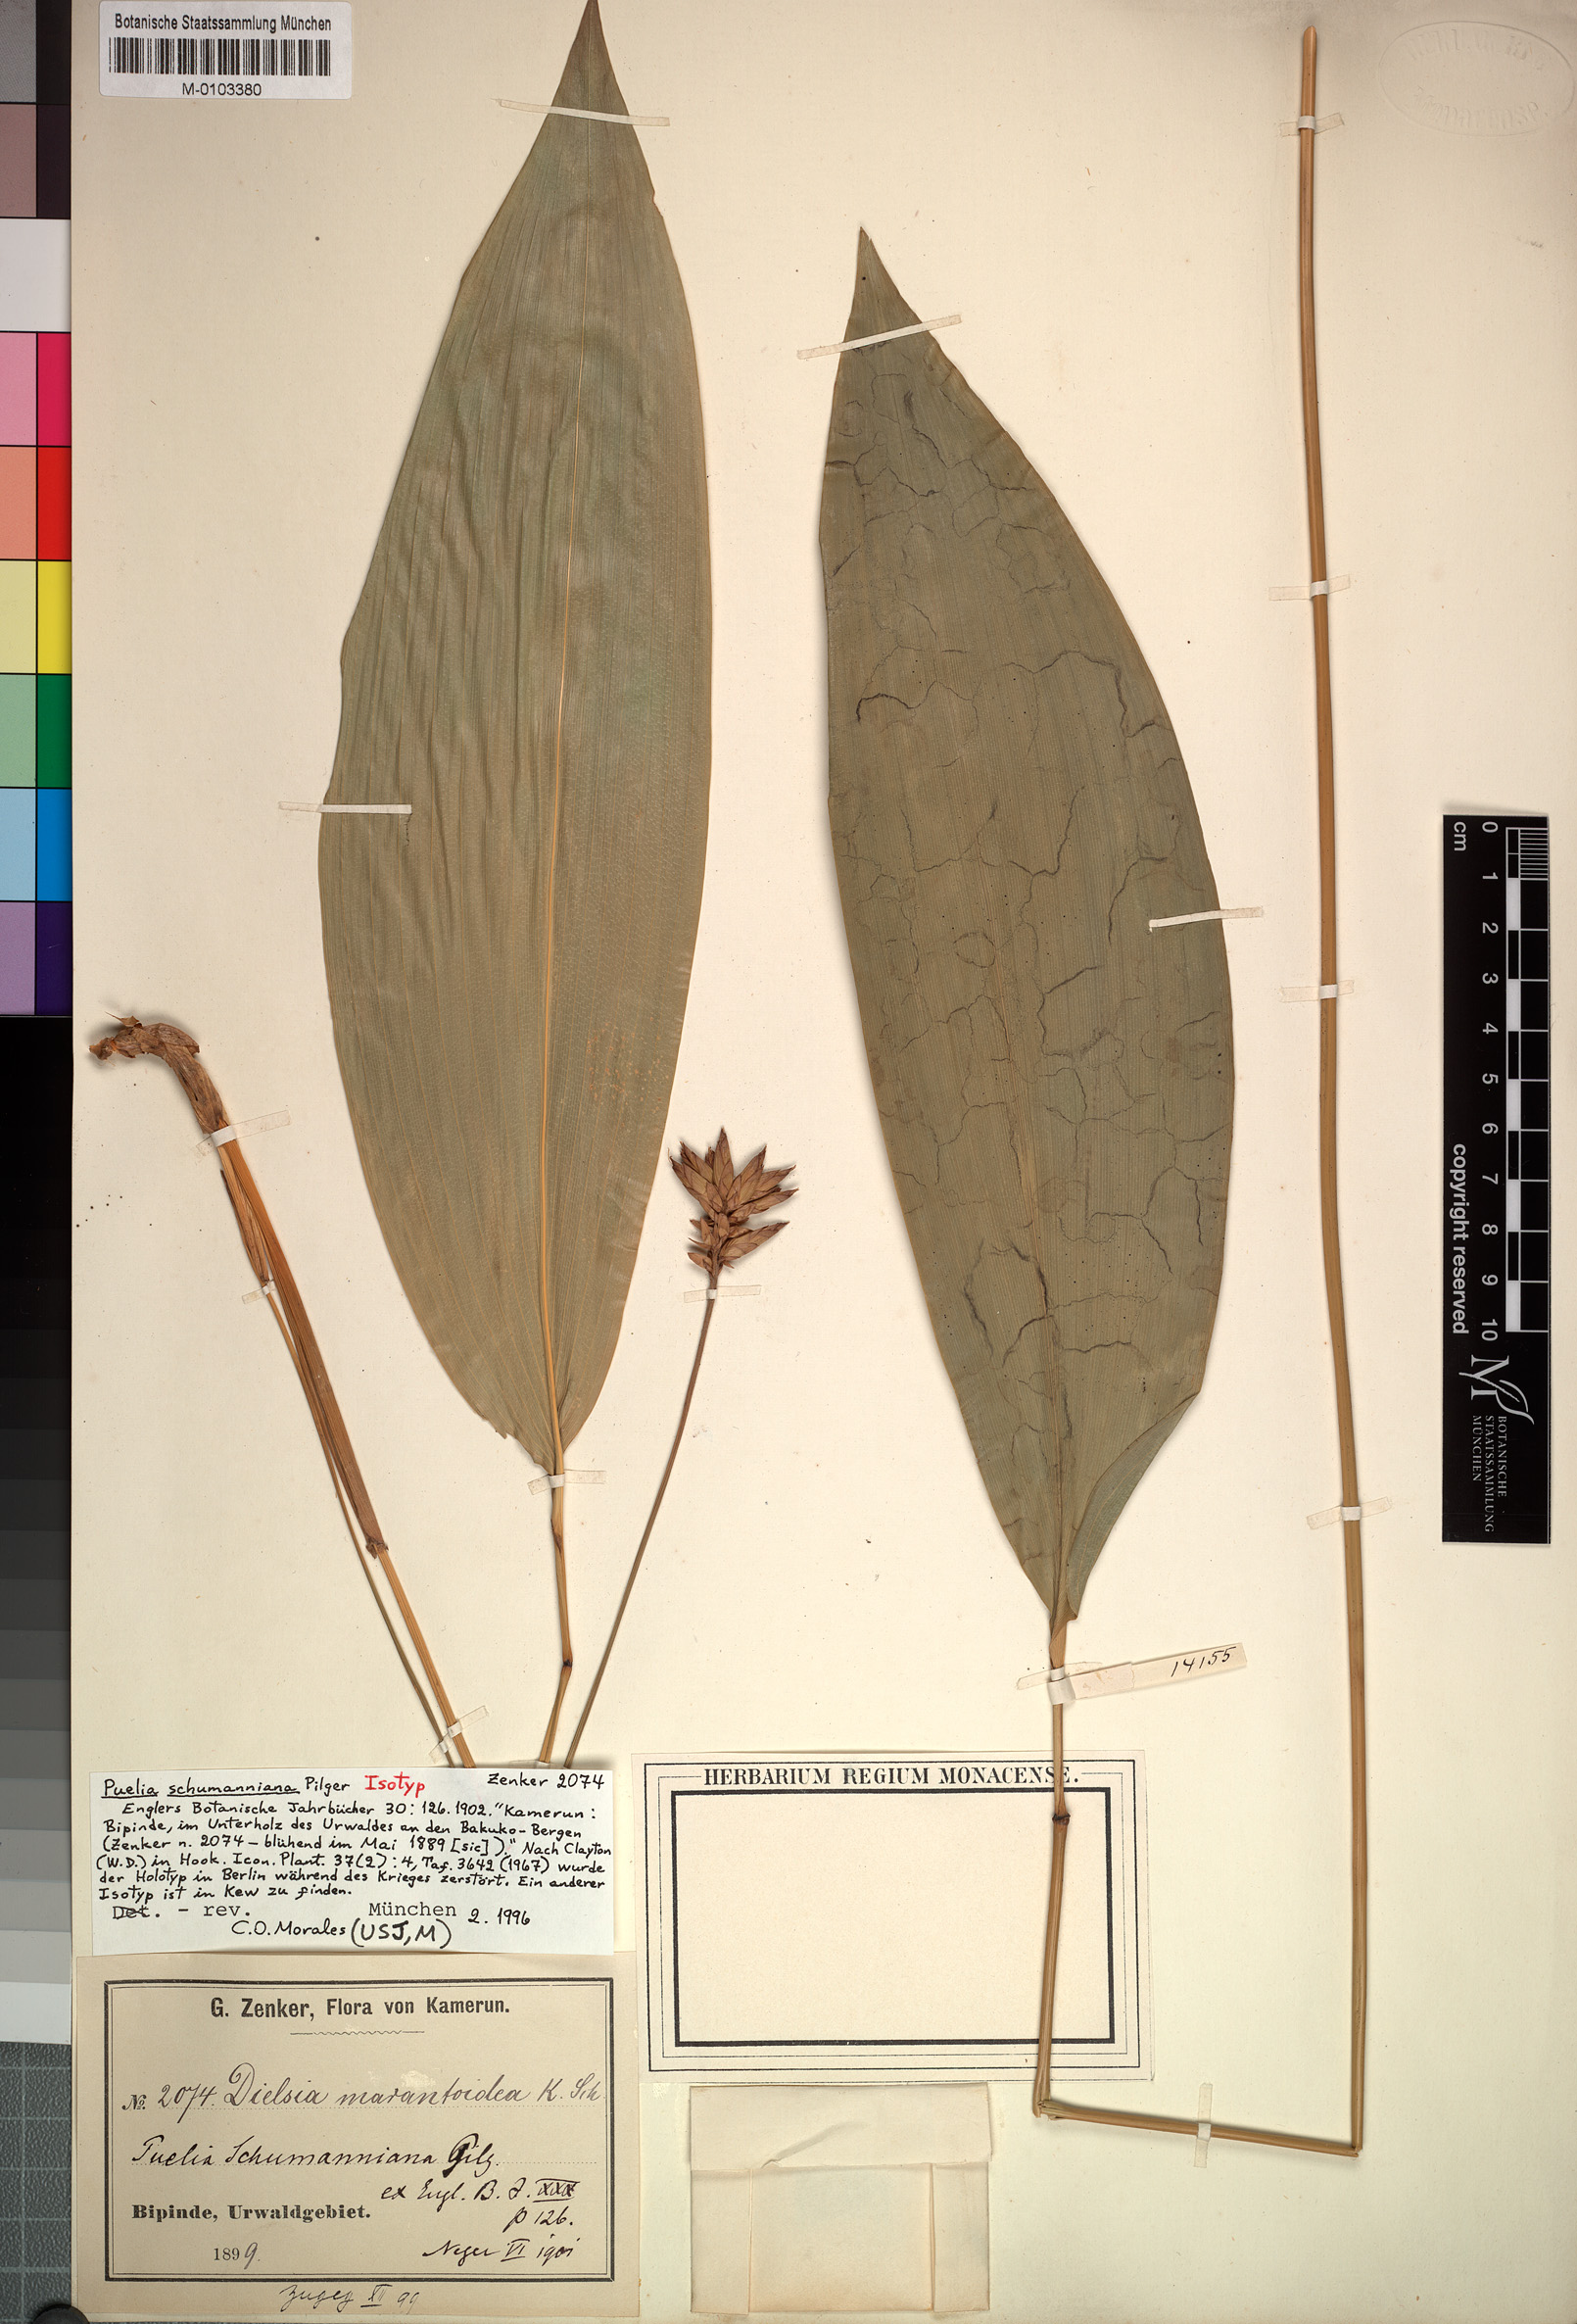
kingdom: Plantae
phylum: Tracheophyta
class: Liliopsida
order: Poales
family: Poaceae
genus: Puelia
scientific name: Puelia schumanniana
